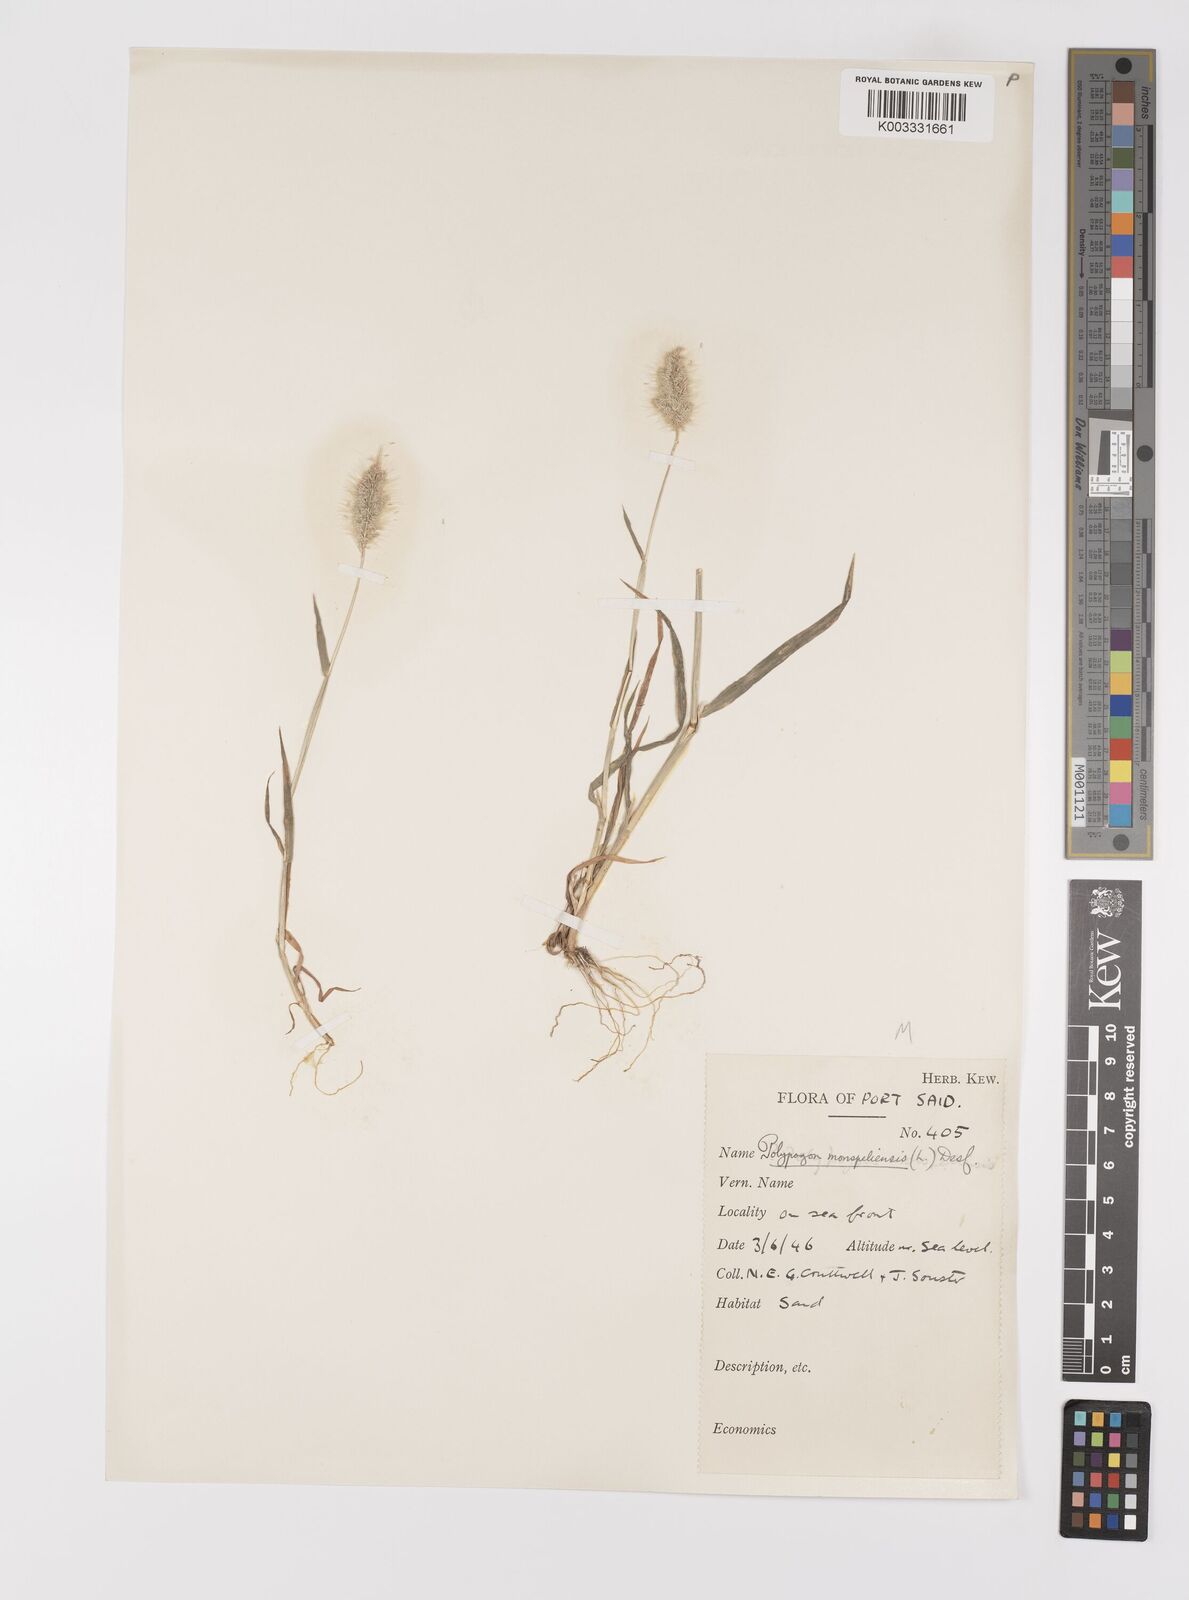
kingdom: Plantae
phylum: Tracheophyta
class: Liliopsida
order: Poales
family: Poaceae
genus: Polypogon
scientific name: Polypogon monspeliensis
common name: Annual rabbitsfoot grass
